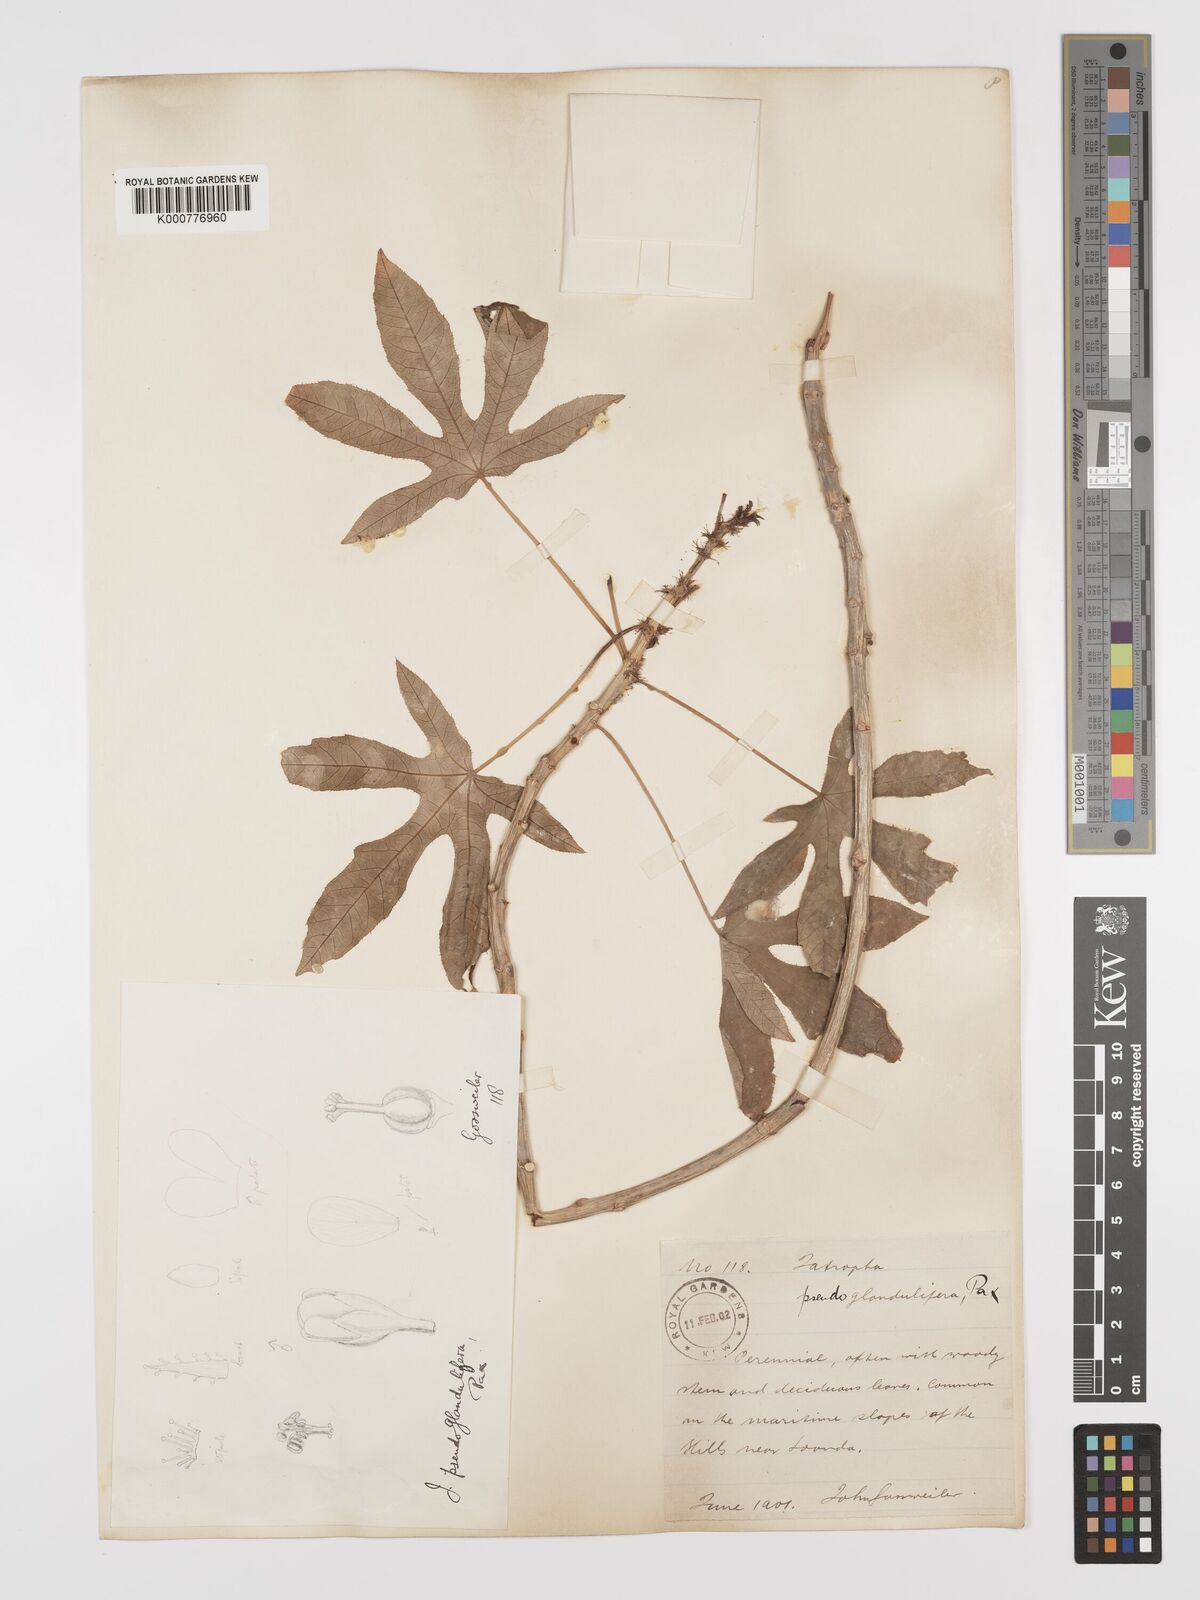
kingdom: Plantae
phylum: Tracheophyta
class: Magnoliopsida
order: Malpighiales
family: Euphorbiaceae
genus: Jatropha
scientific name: Jatropha spicata
